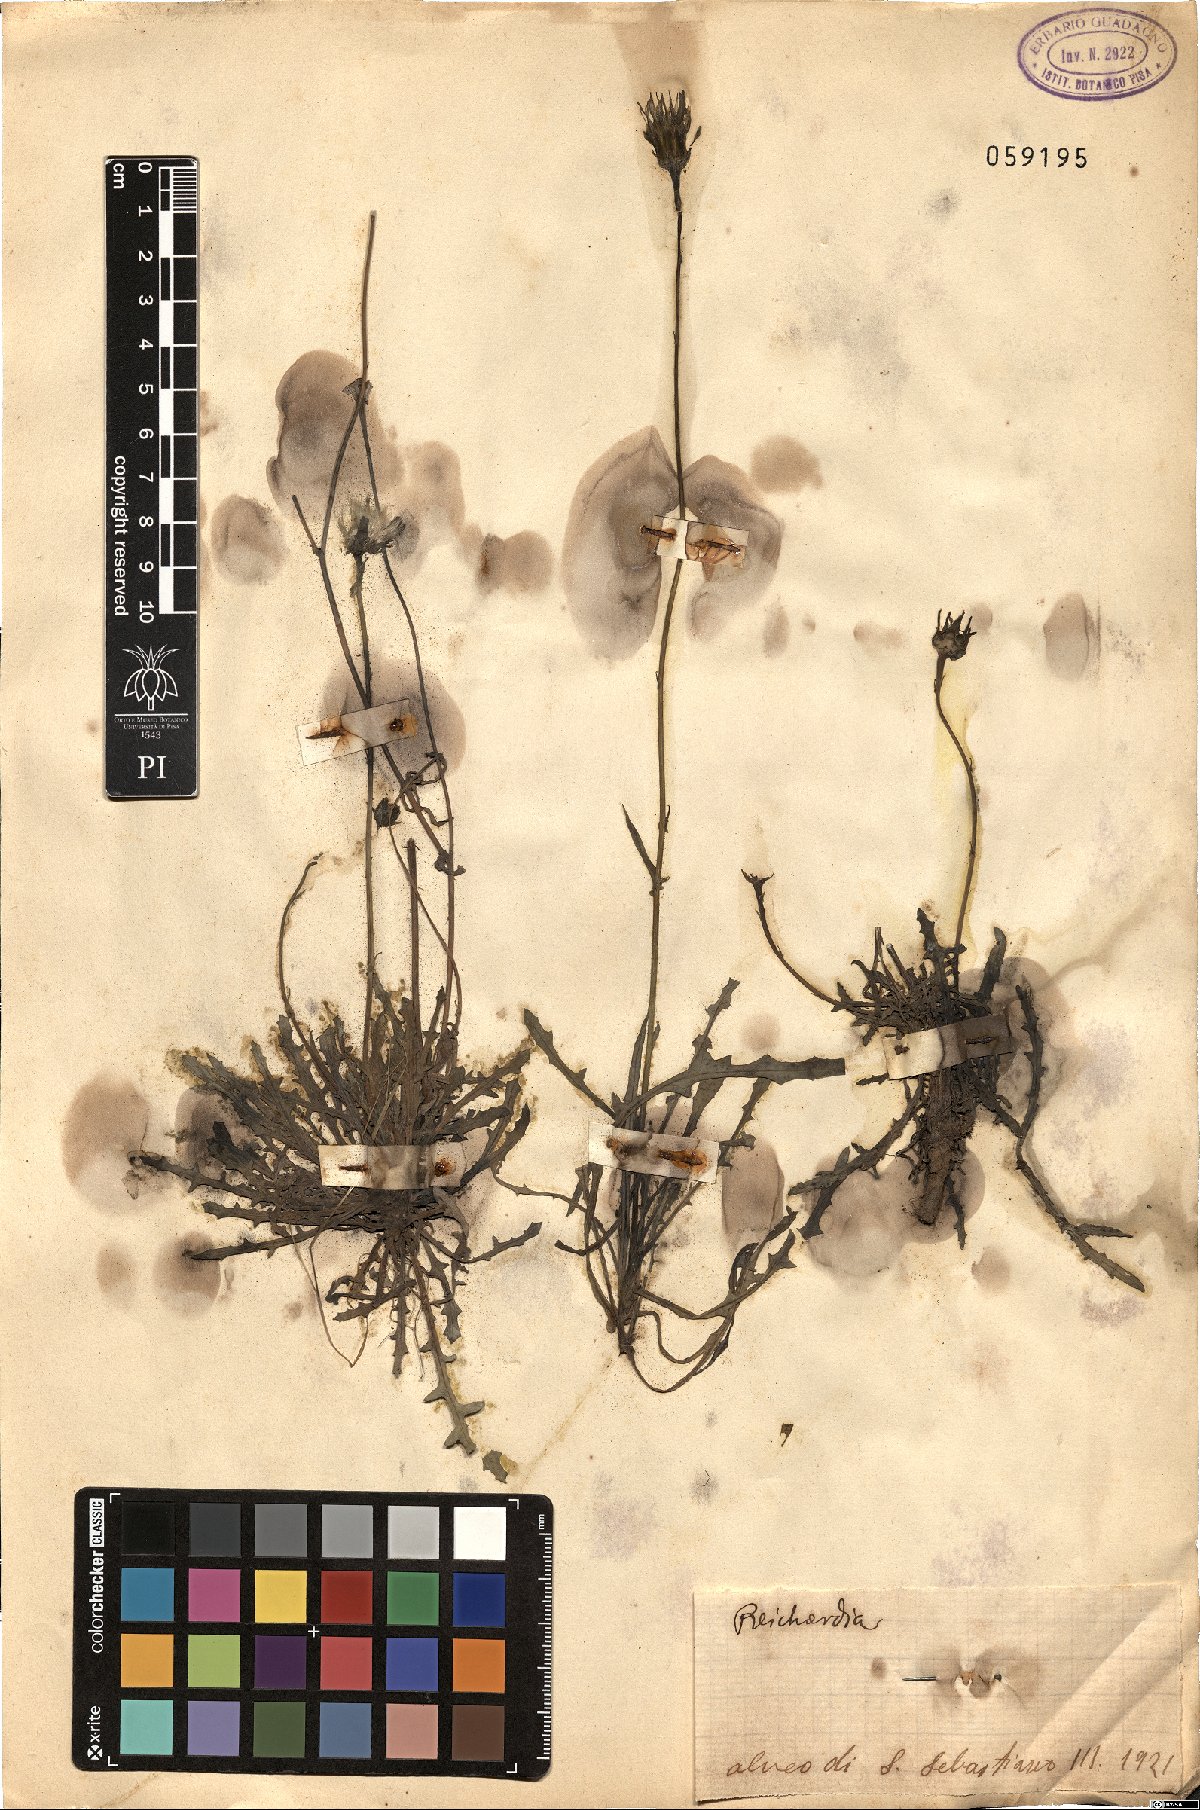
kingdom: Plantae
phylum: Tracheophyta
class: Magnoliopsida
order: Asterales
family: Asteraceae
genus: Reichardia
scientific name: Reichardia
